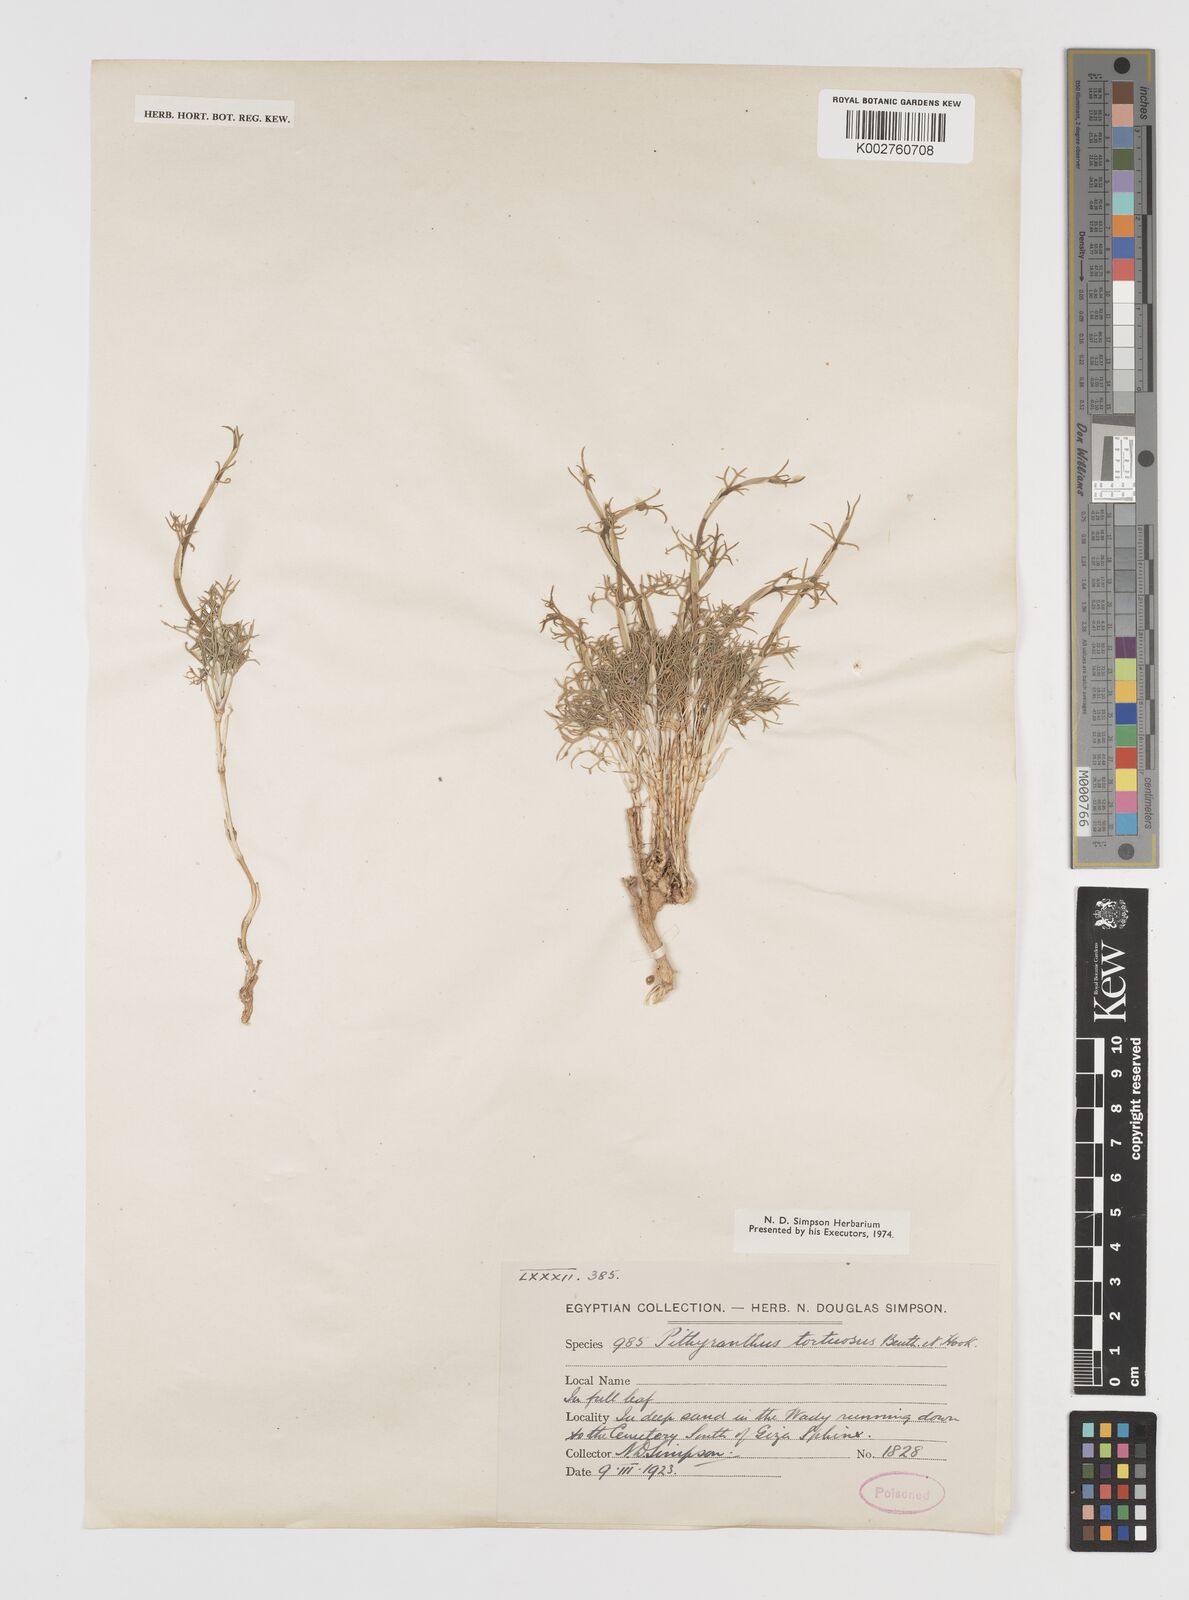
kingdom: Plantae
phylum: Tracheophyta
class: Magnoliopsida
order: Apiales
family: Apiaceae
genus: Deverra
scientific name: Deverra denudata
